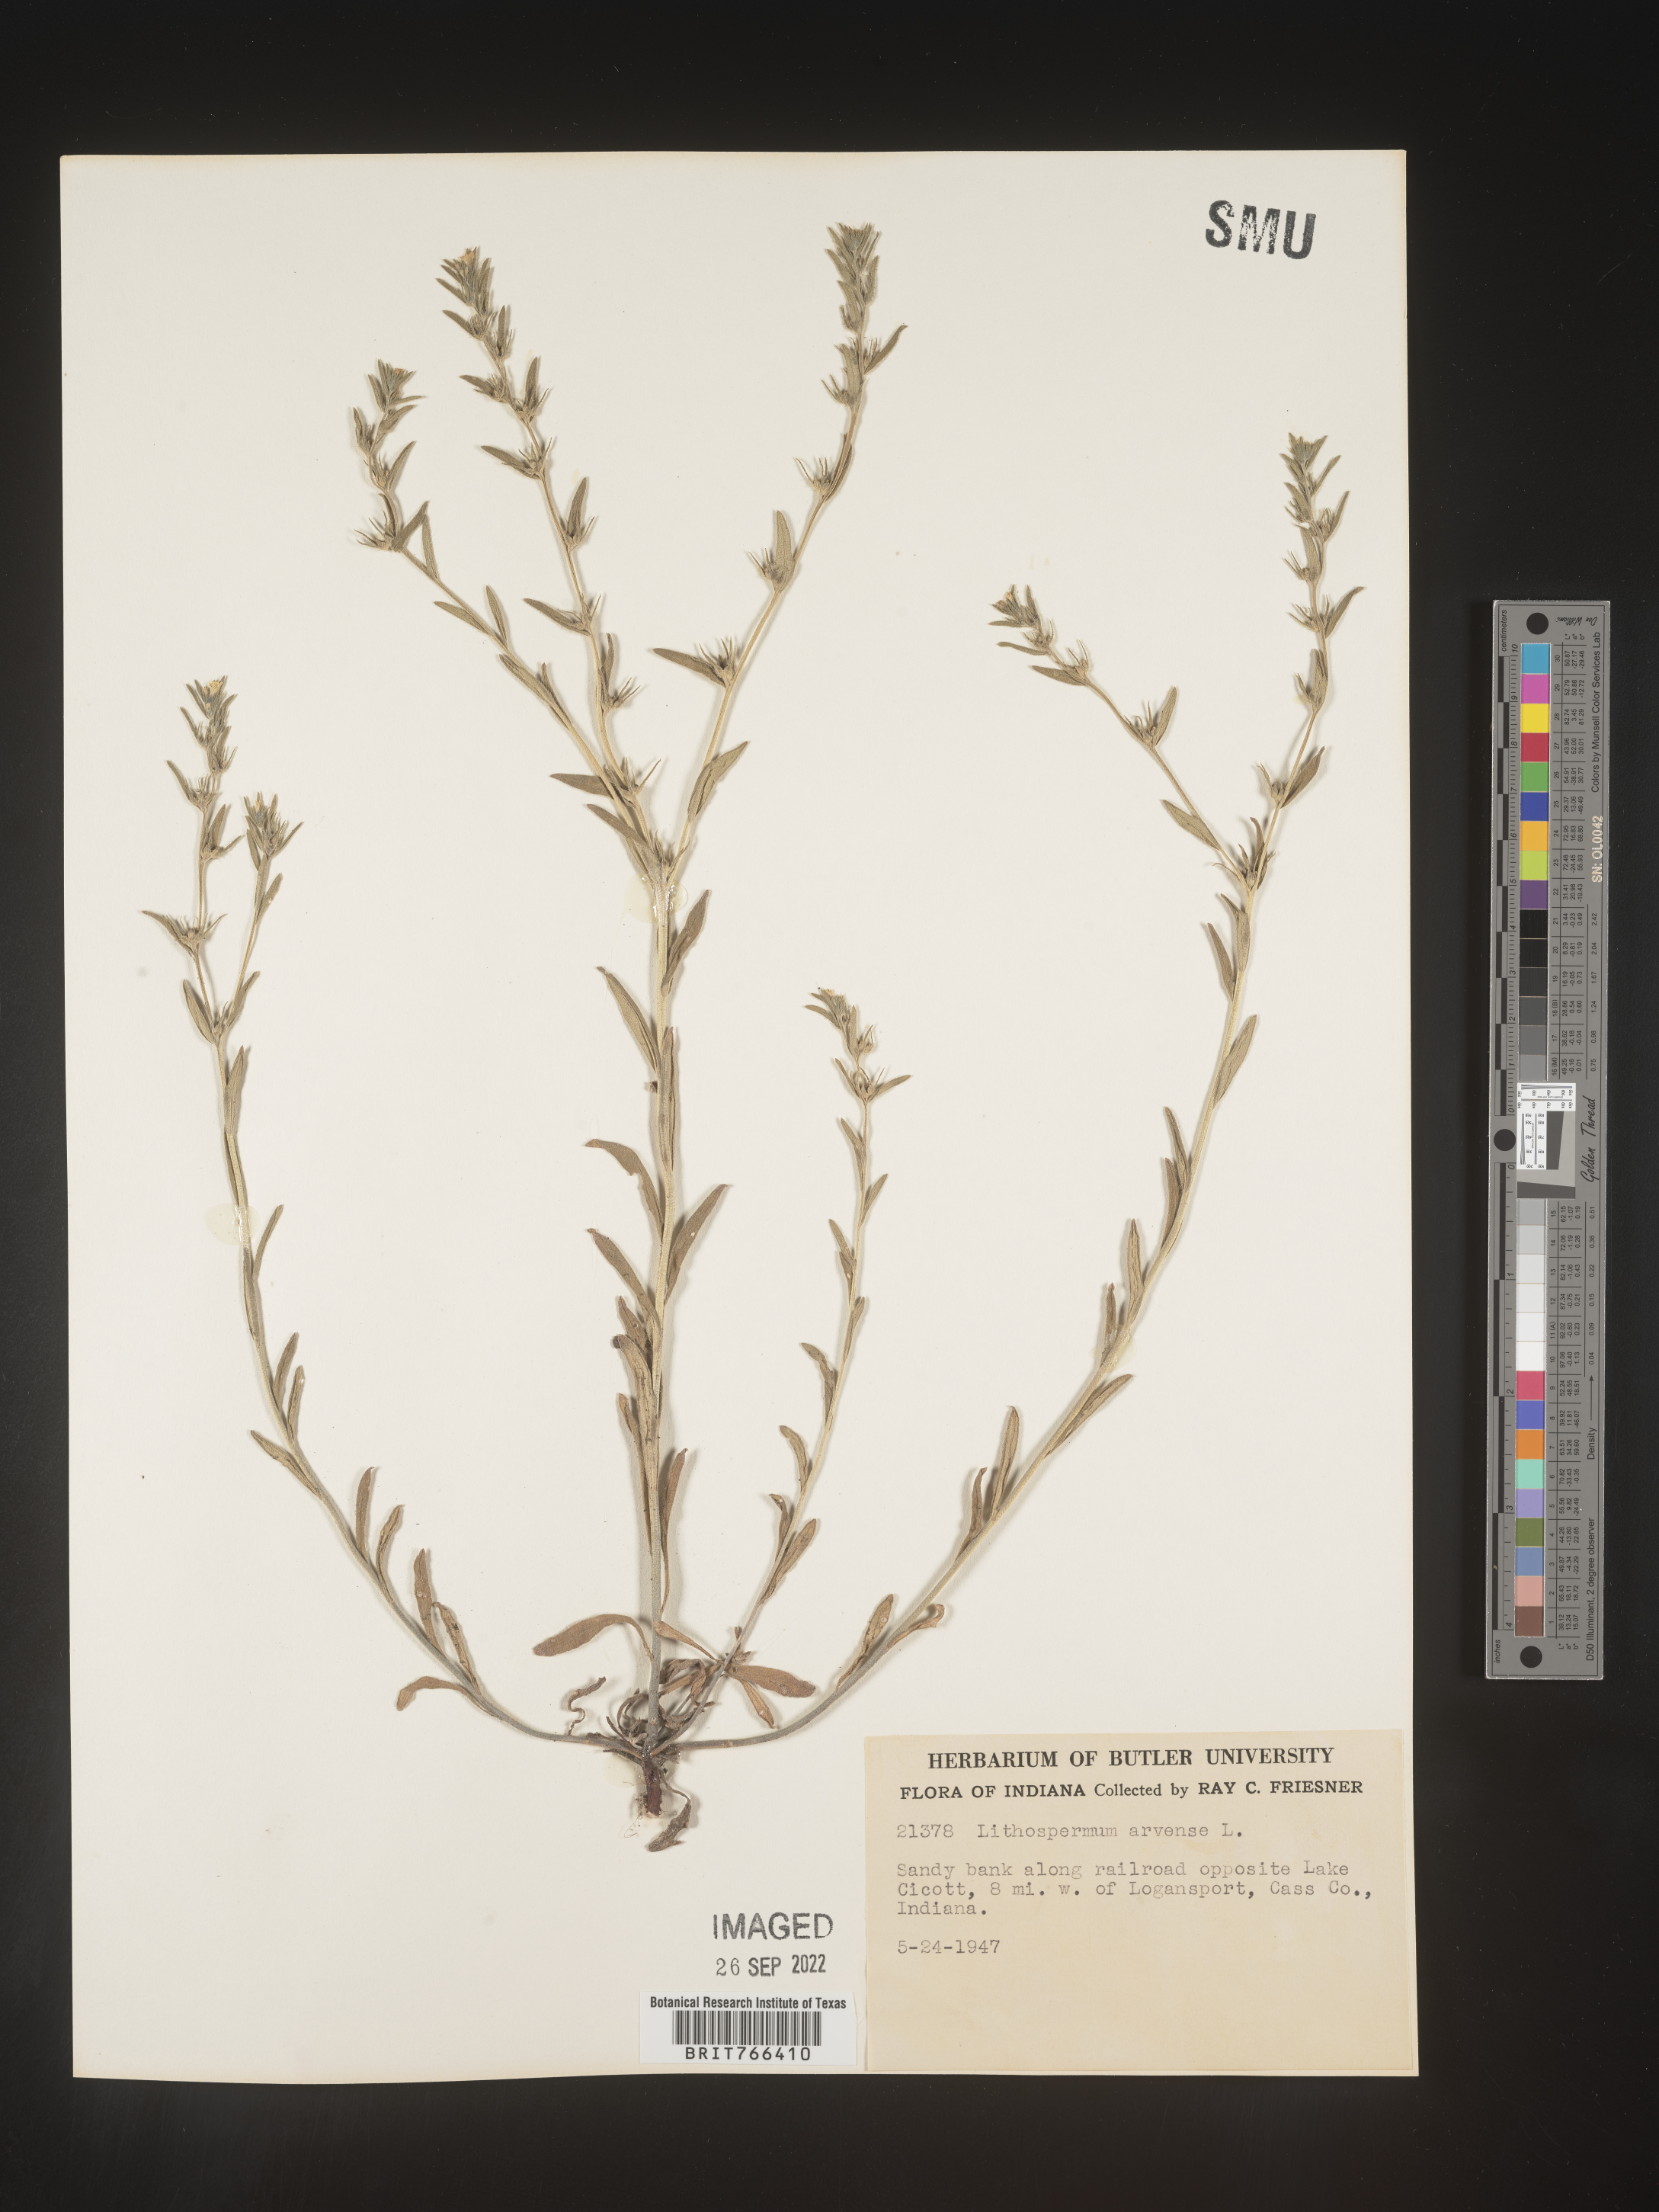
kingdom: Plantae
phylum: Tracheophyta
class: Magnoliopsida
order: Boraginales
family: Boraginaceae
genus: Buglossoides
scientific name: Buglossoides arvensis
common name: Corn gromwell
